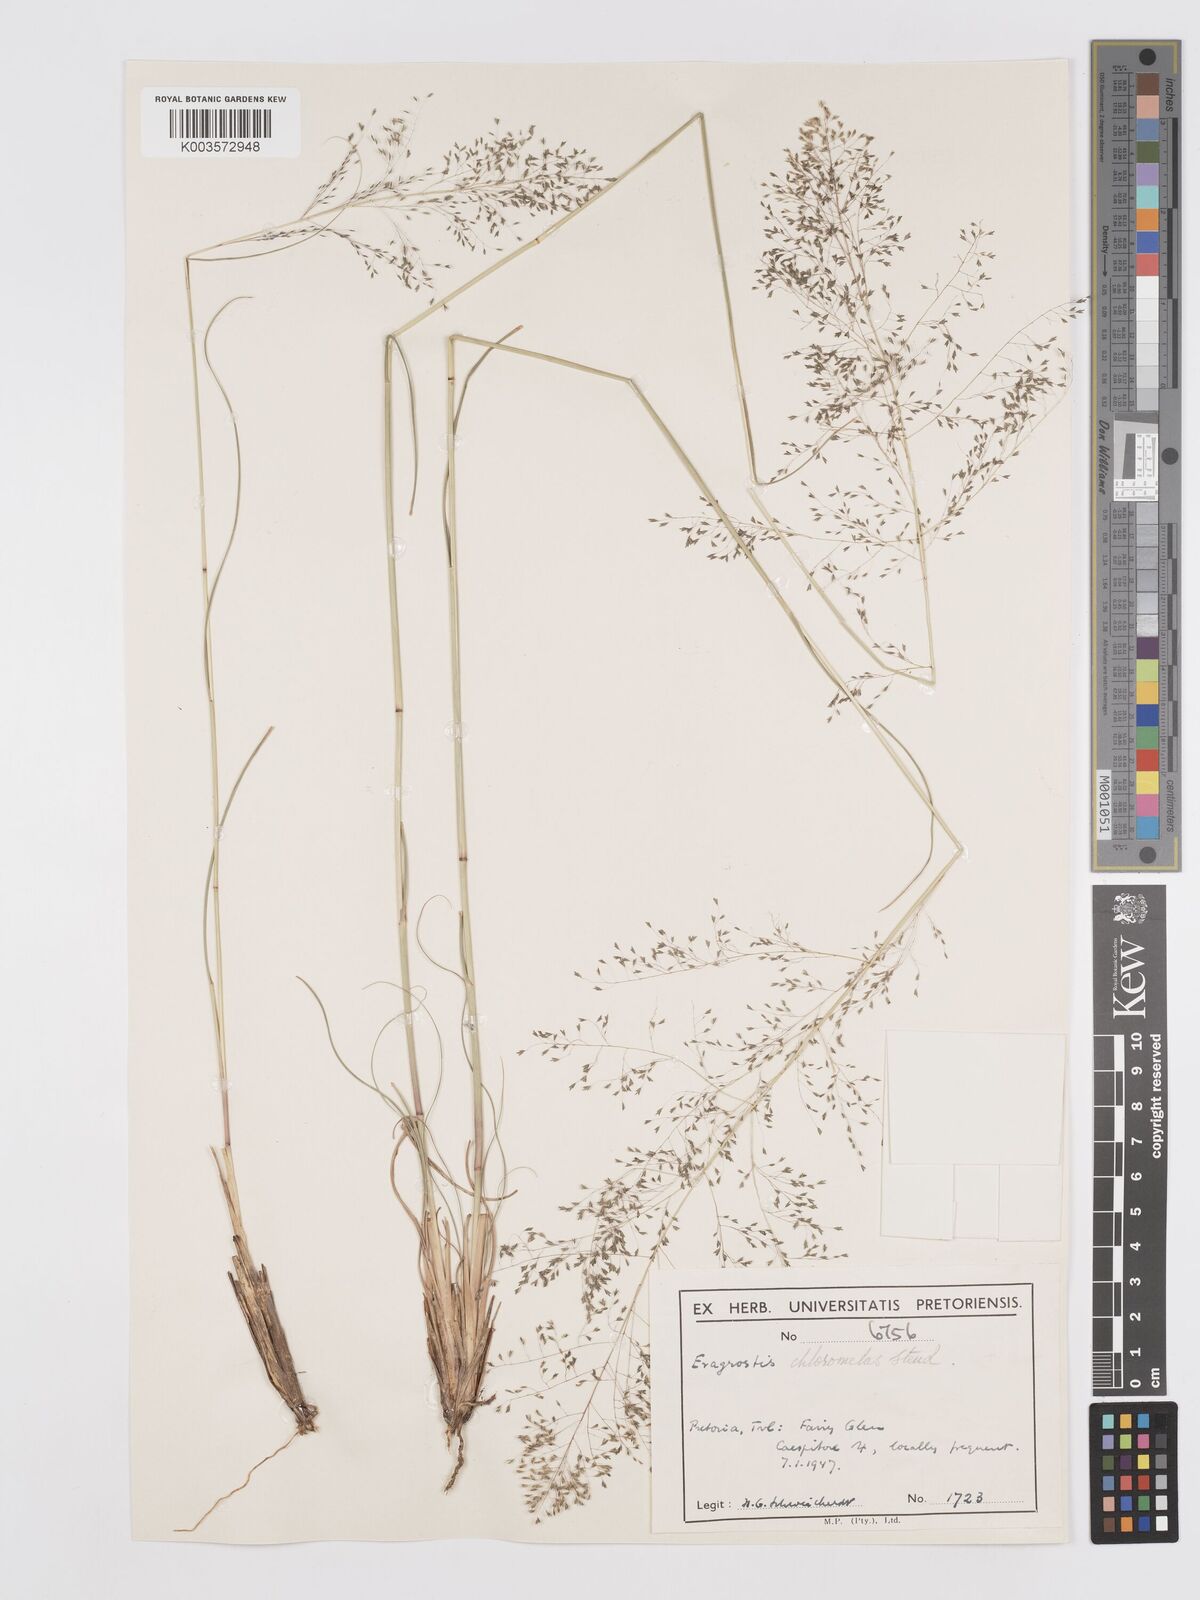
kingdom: Plantae
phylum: Tracheophyta
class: Liliopsida
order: Poales
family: Poaceae
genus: Eragrostis
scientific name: Eragrostis curvula
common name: African love-grass
